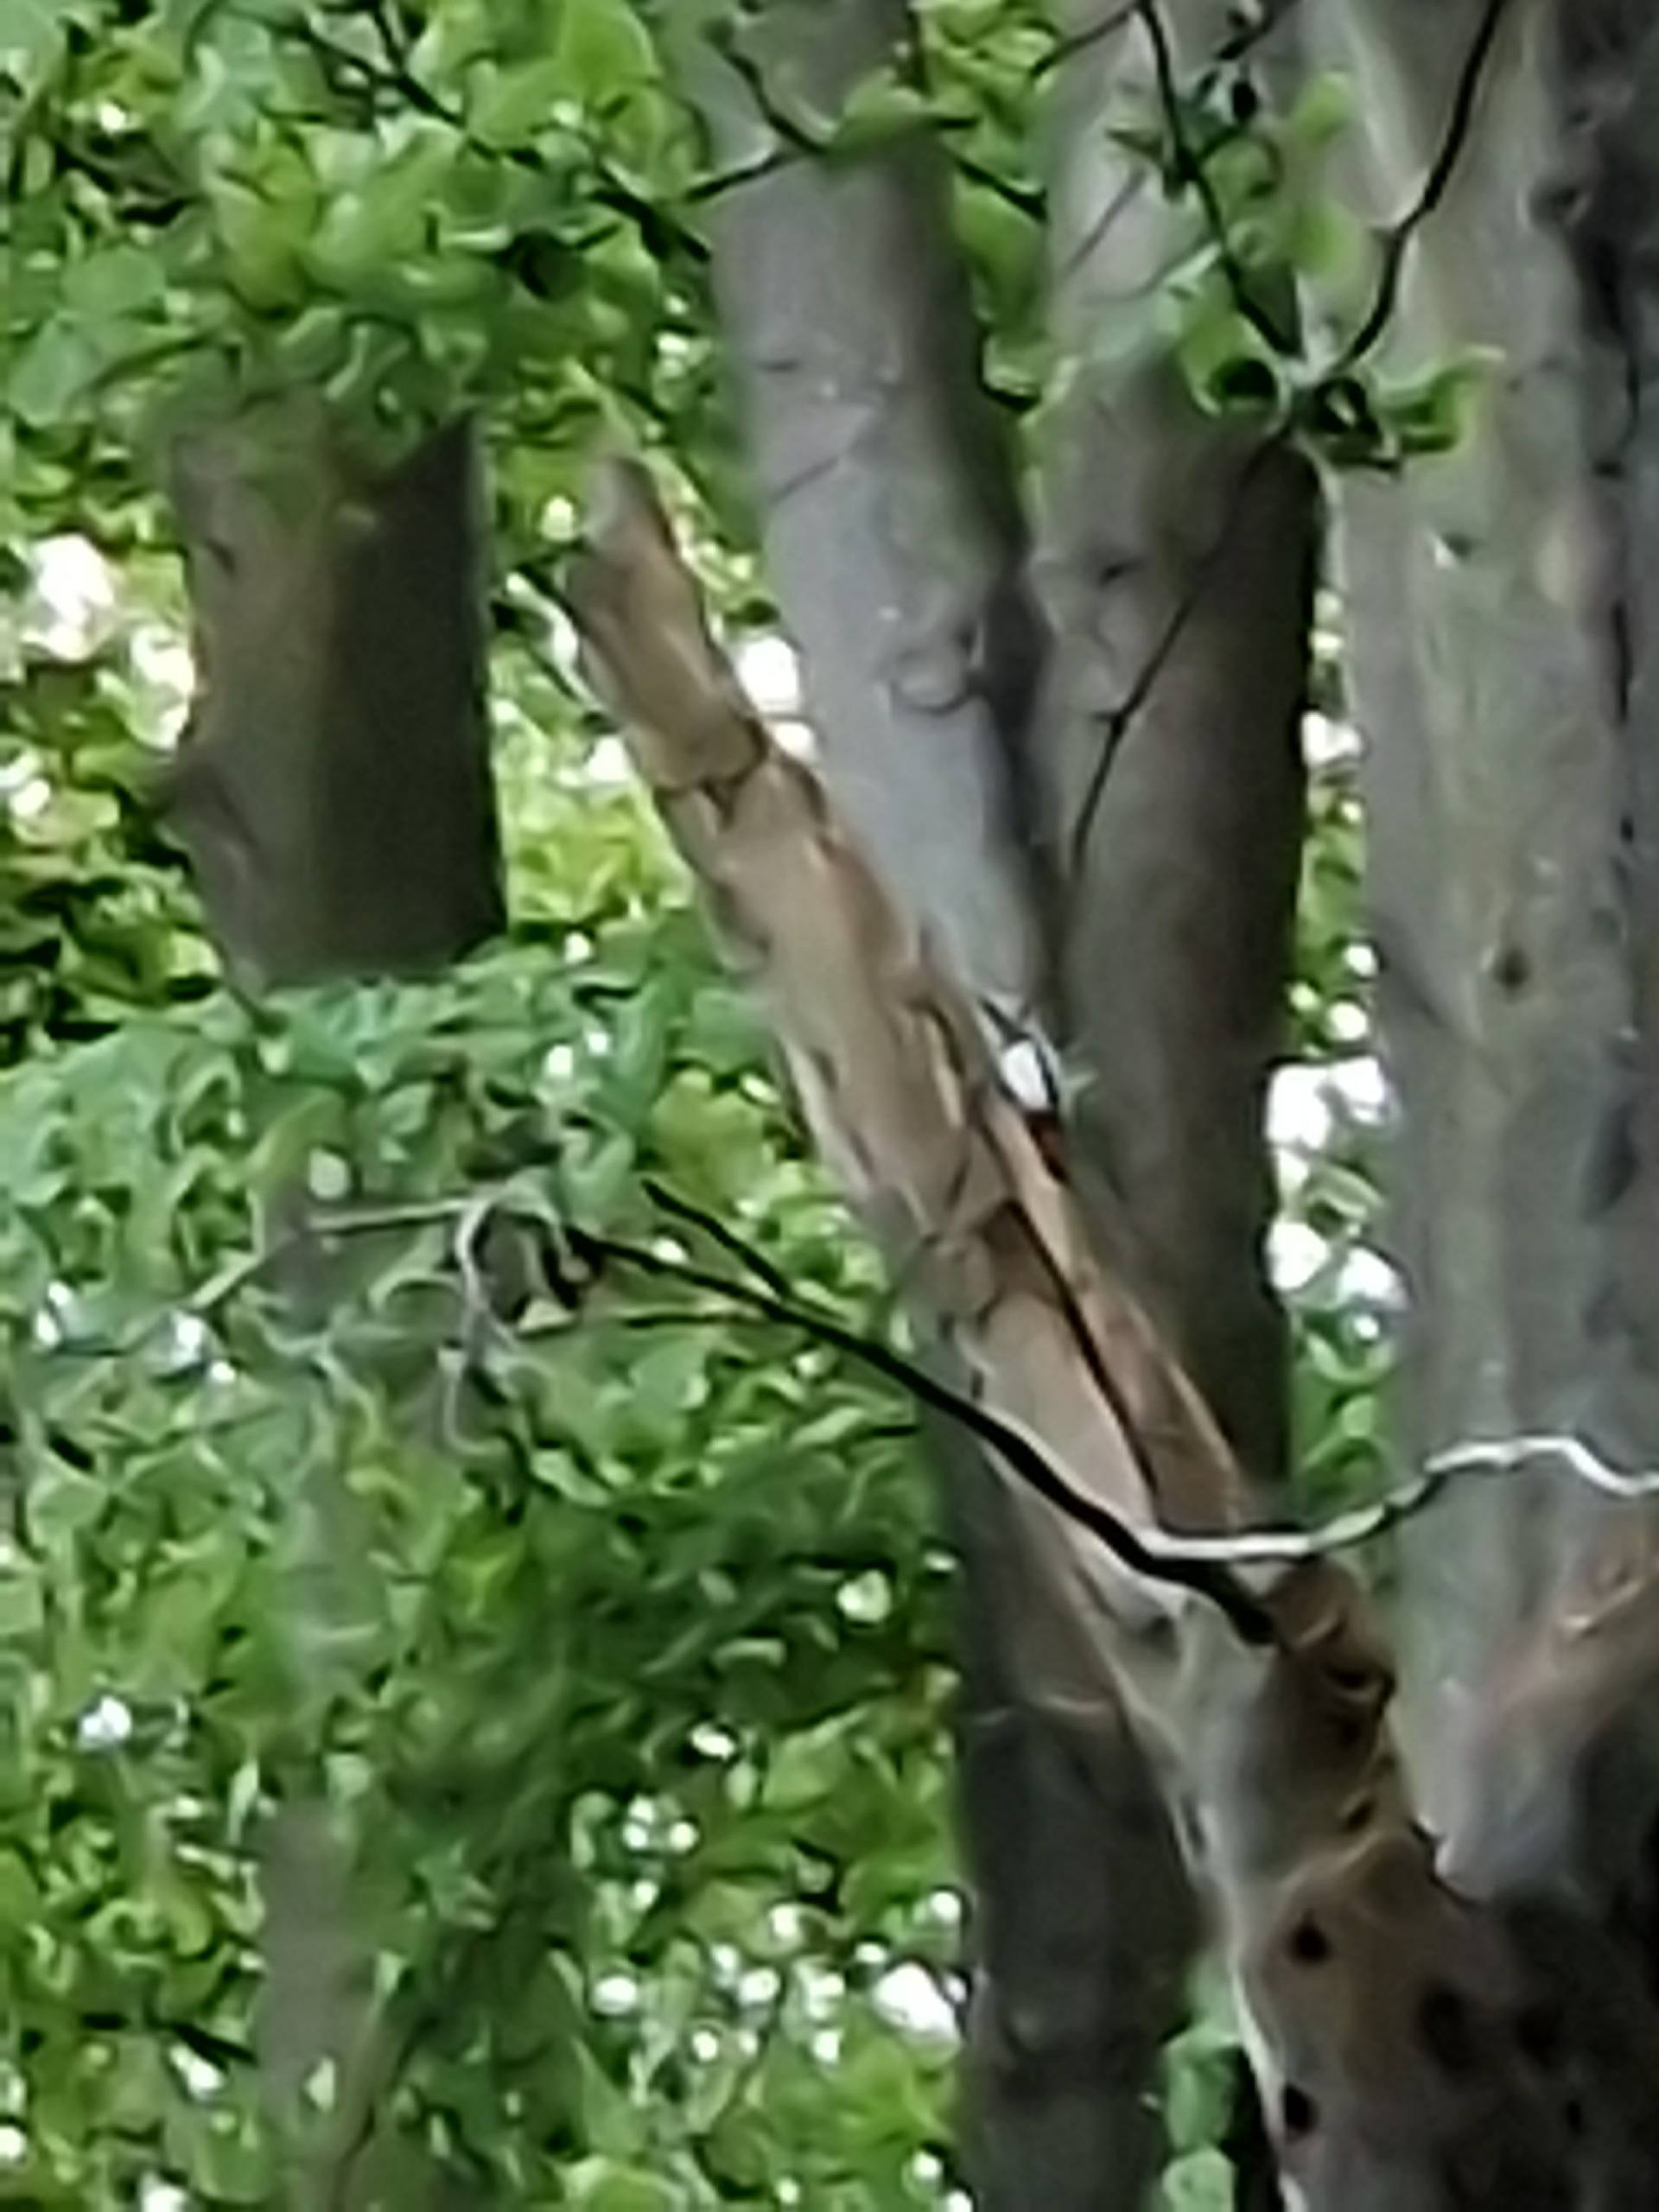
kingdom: Animalia
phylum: Chordata
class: Aves
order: Piciformes
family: Picidae
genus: Dendrocopos
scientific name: Dendrocopos major
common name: Stor flagspætte
